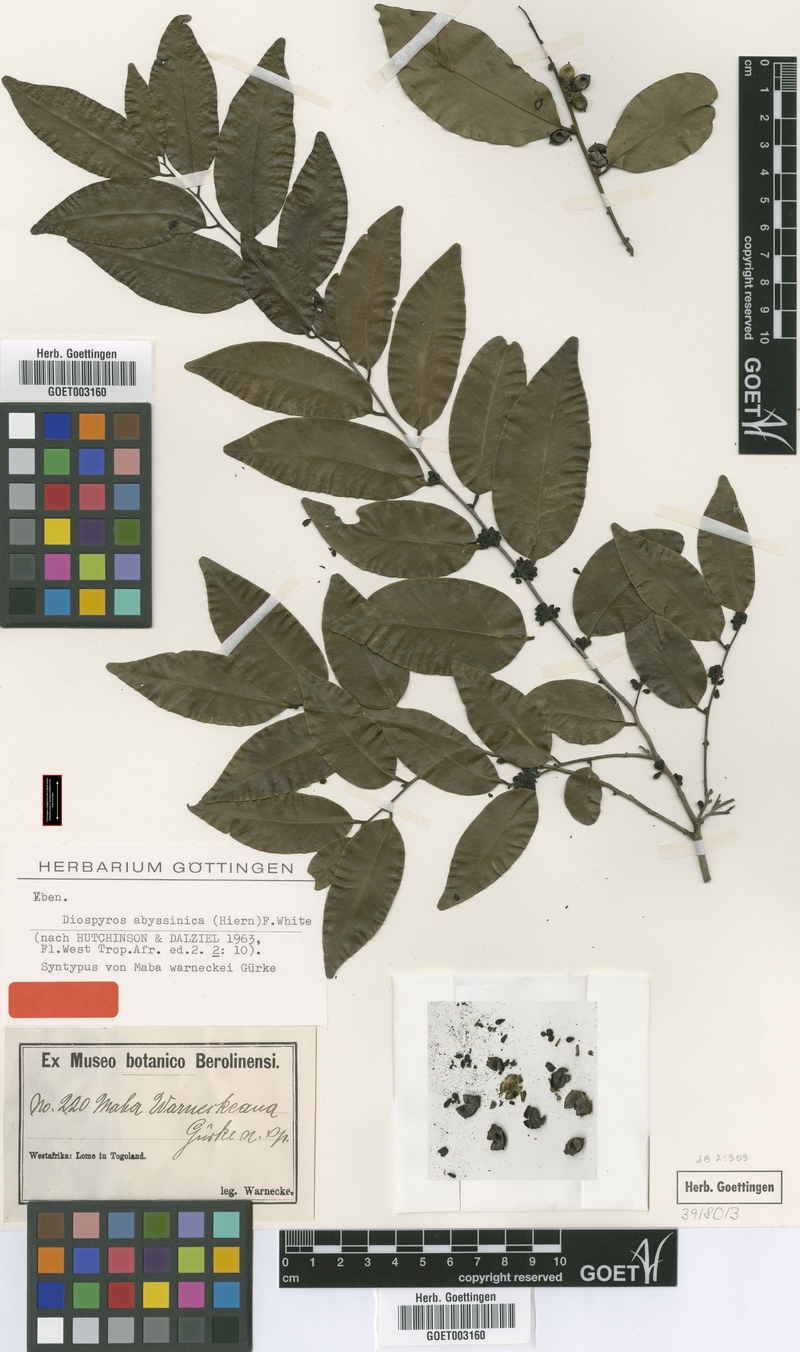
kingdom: Plantae
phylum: Tracheophyta
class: Magnoliopsida
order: Ericales
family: Ebenaceae
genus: Diospyros
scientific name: Diospyros abyssinica
